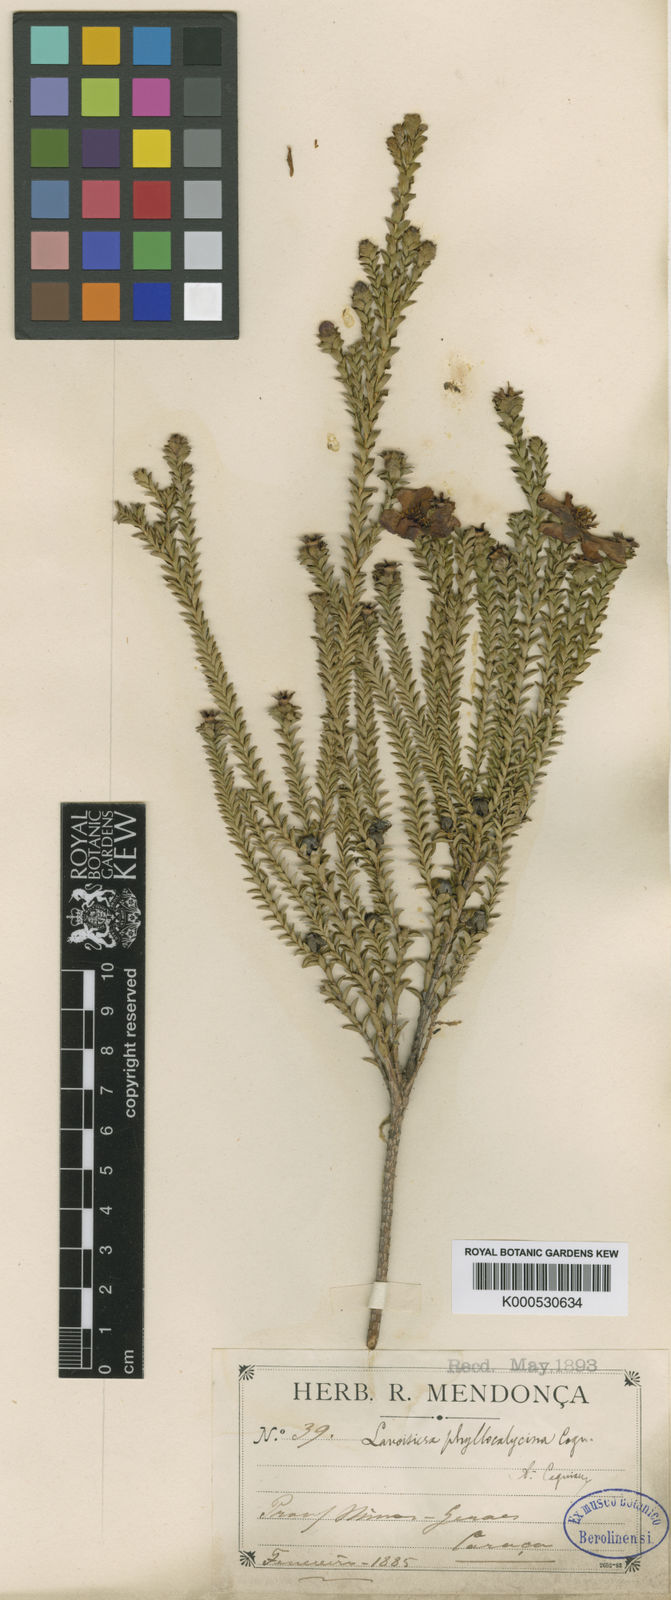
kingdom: Plantae
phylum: Tracheophyta
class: Magnoliopsida
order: Myrtales
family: Melastomataceae
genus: Microlicia
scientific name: Microlicia cataphracta
